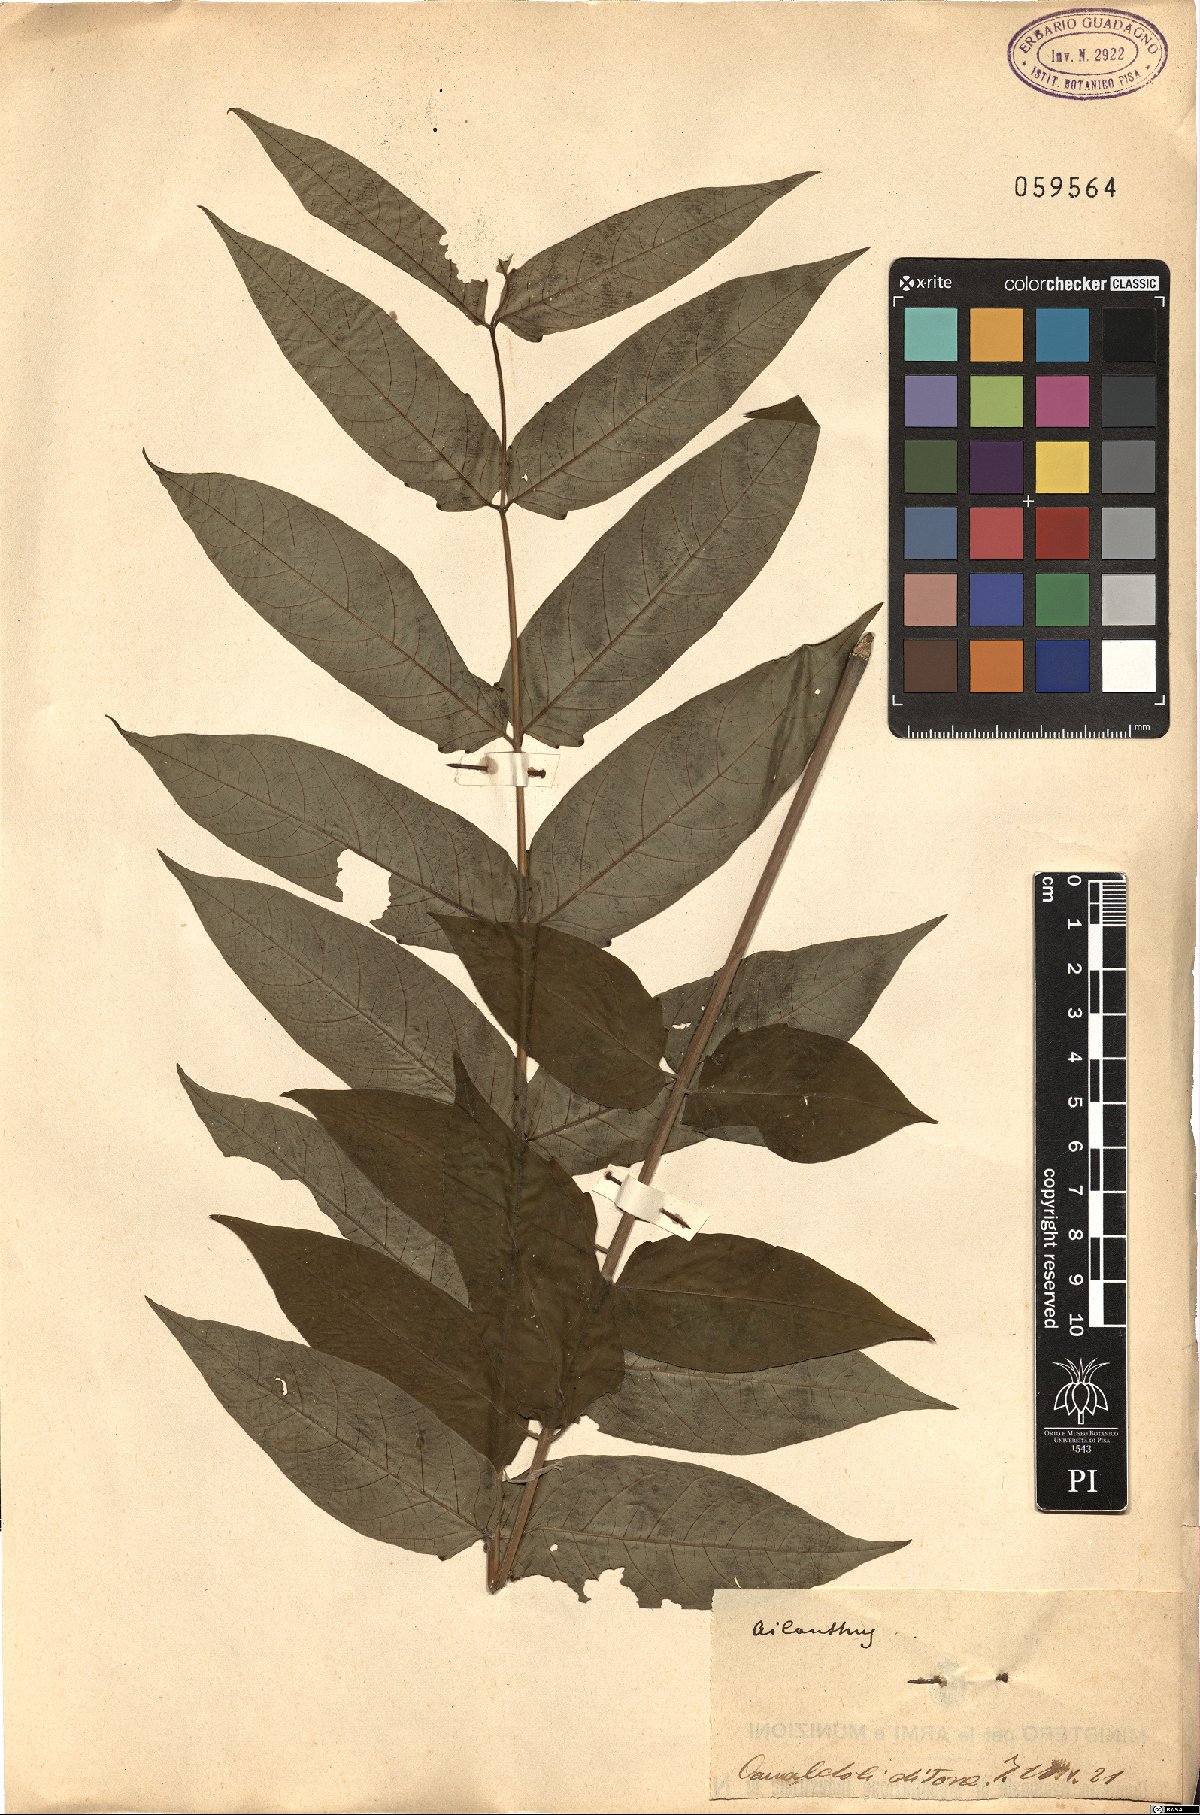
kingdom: Plantae
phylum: Tracheophyta
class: Magnoliopsida
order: Sapindales
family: Simaroubaceae
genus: Ailanthus
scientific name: Ailanthus altissima
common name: Tree-of-heaven
